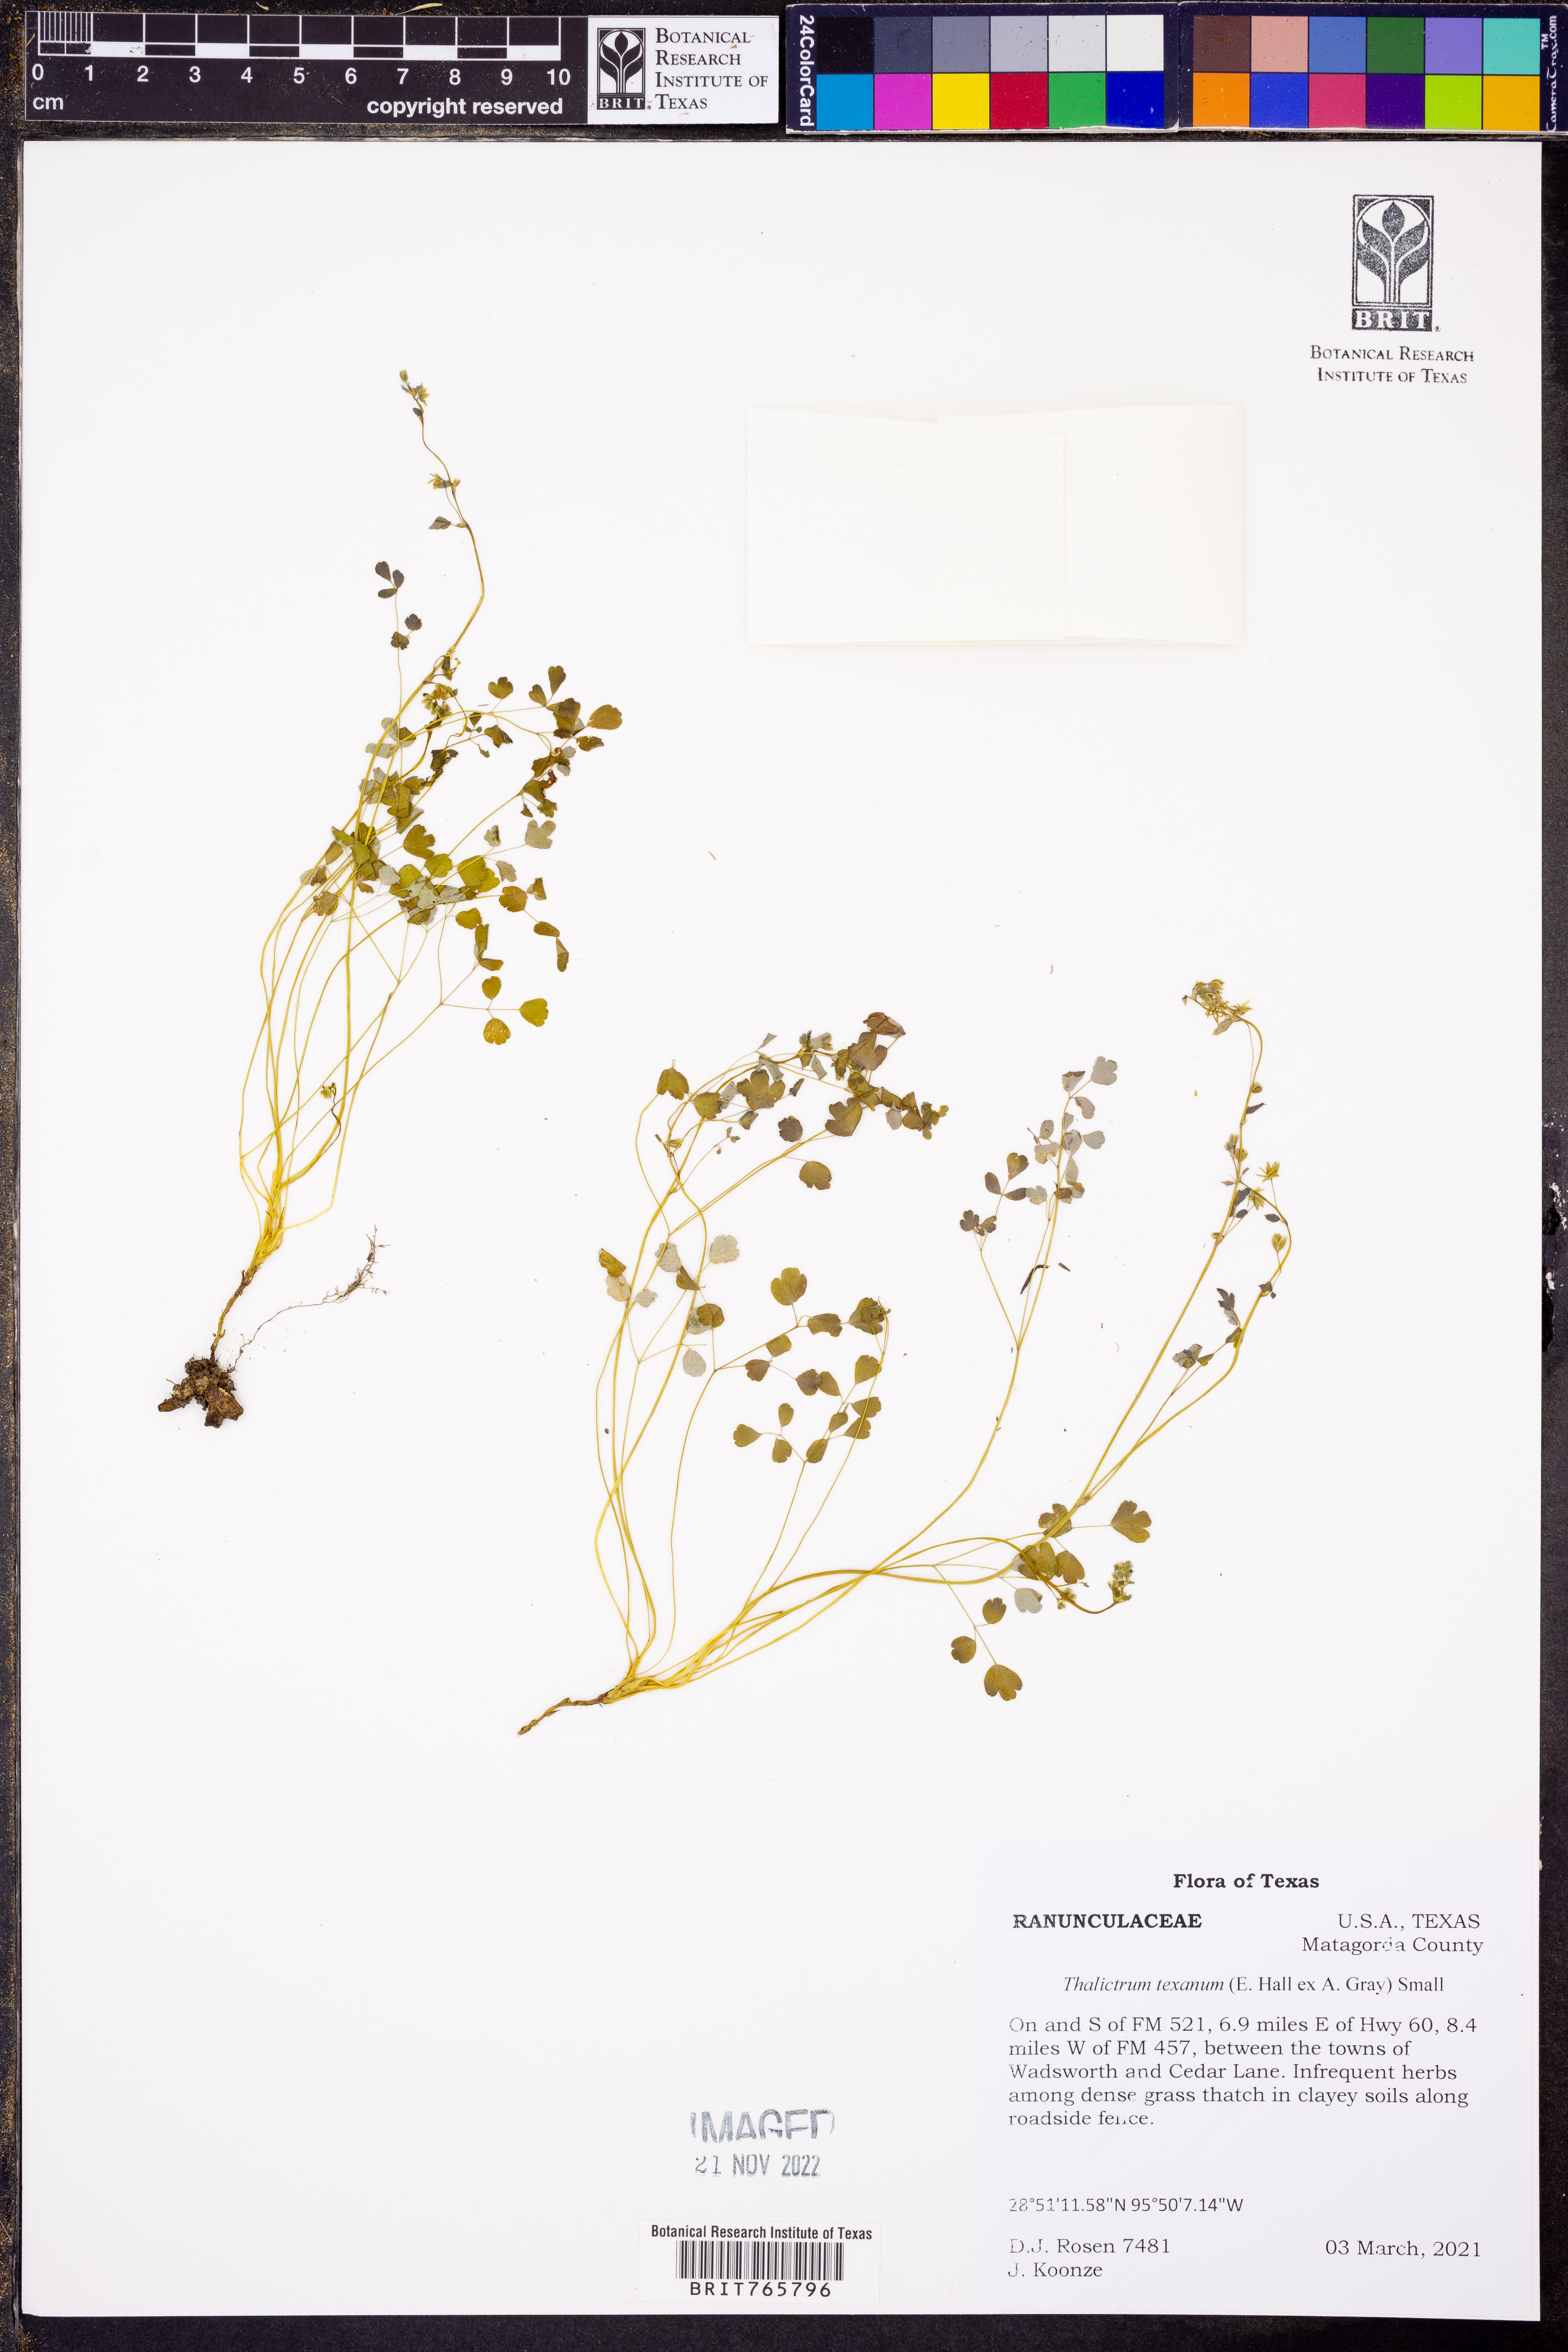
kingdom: Plantae
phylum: Tracheophyta
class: Magnoliopsida
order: Ranunculales
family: Ranunculaceae
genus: Thalictrum
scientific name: Thalictrum texanum
